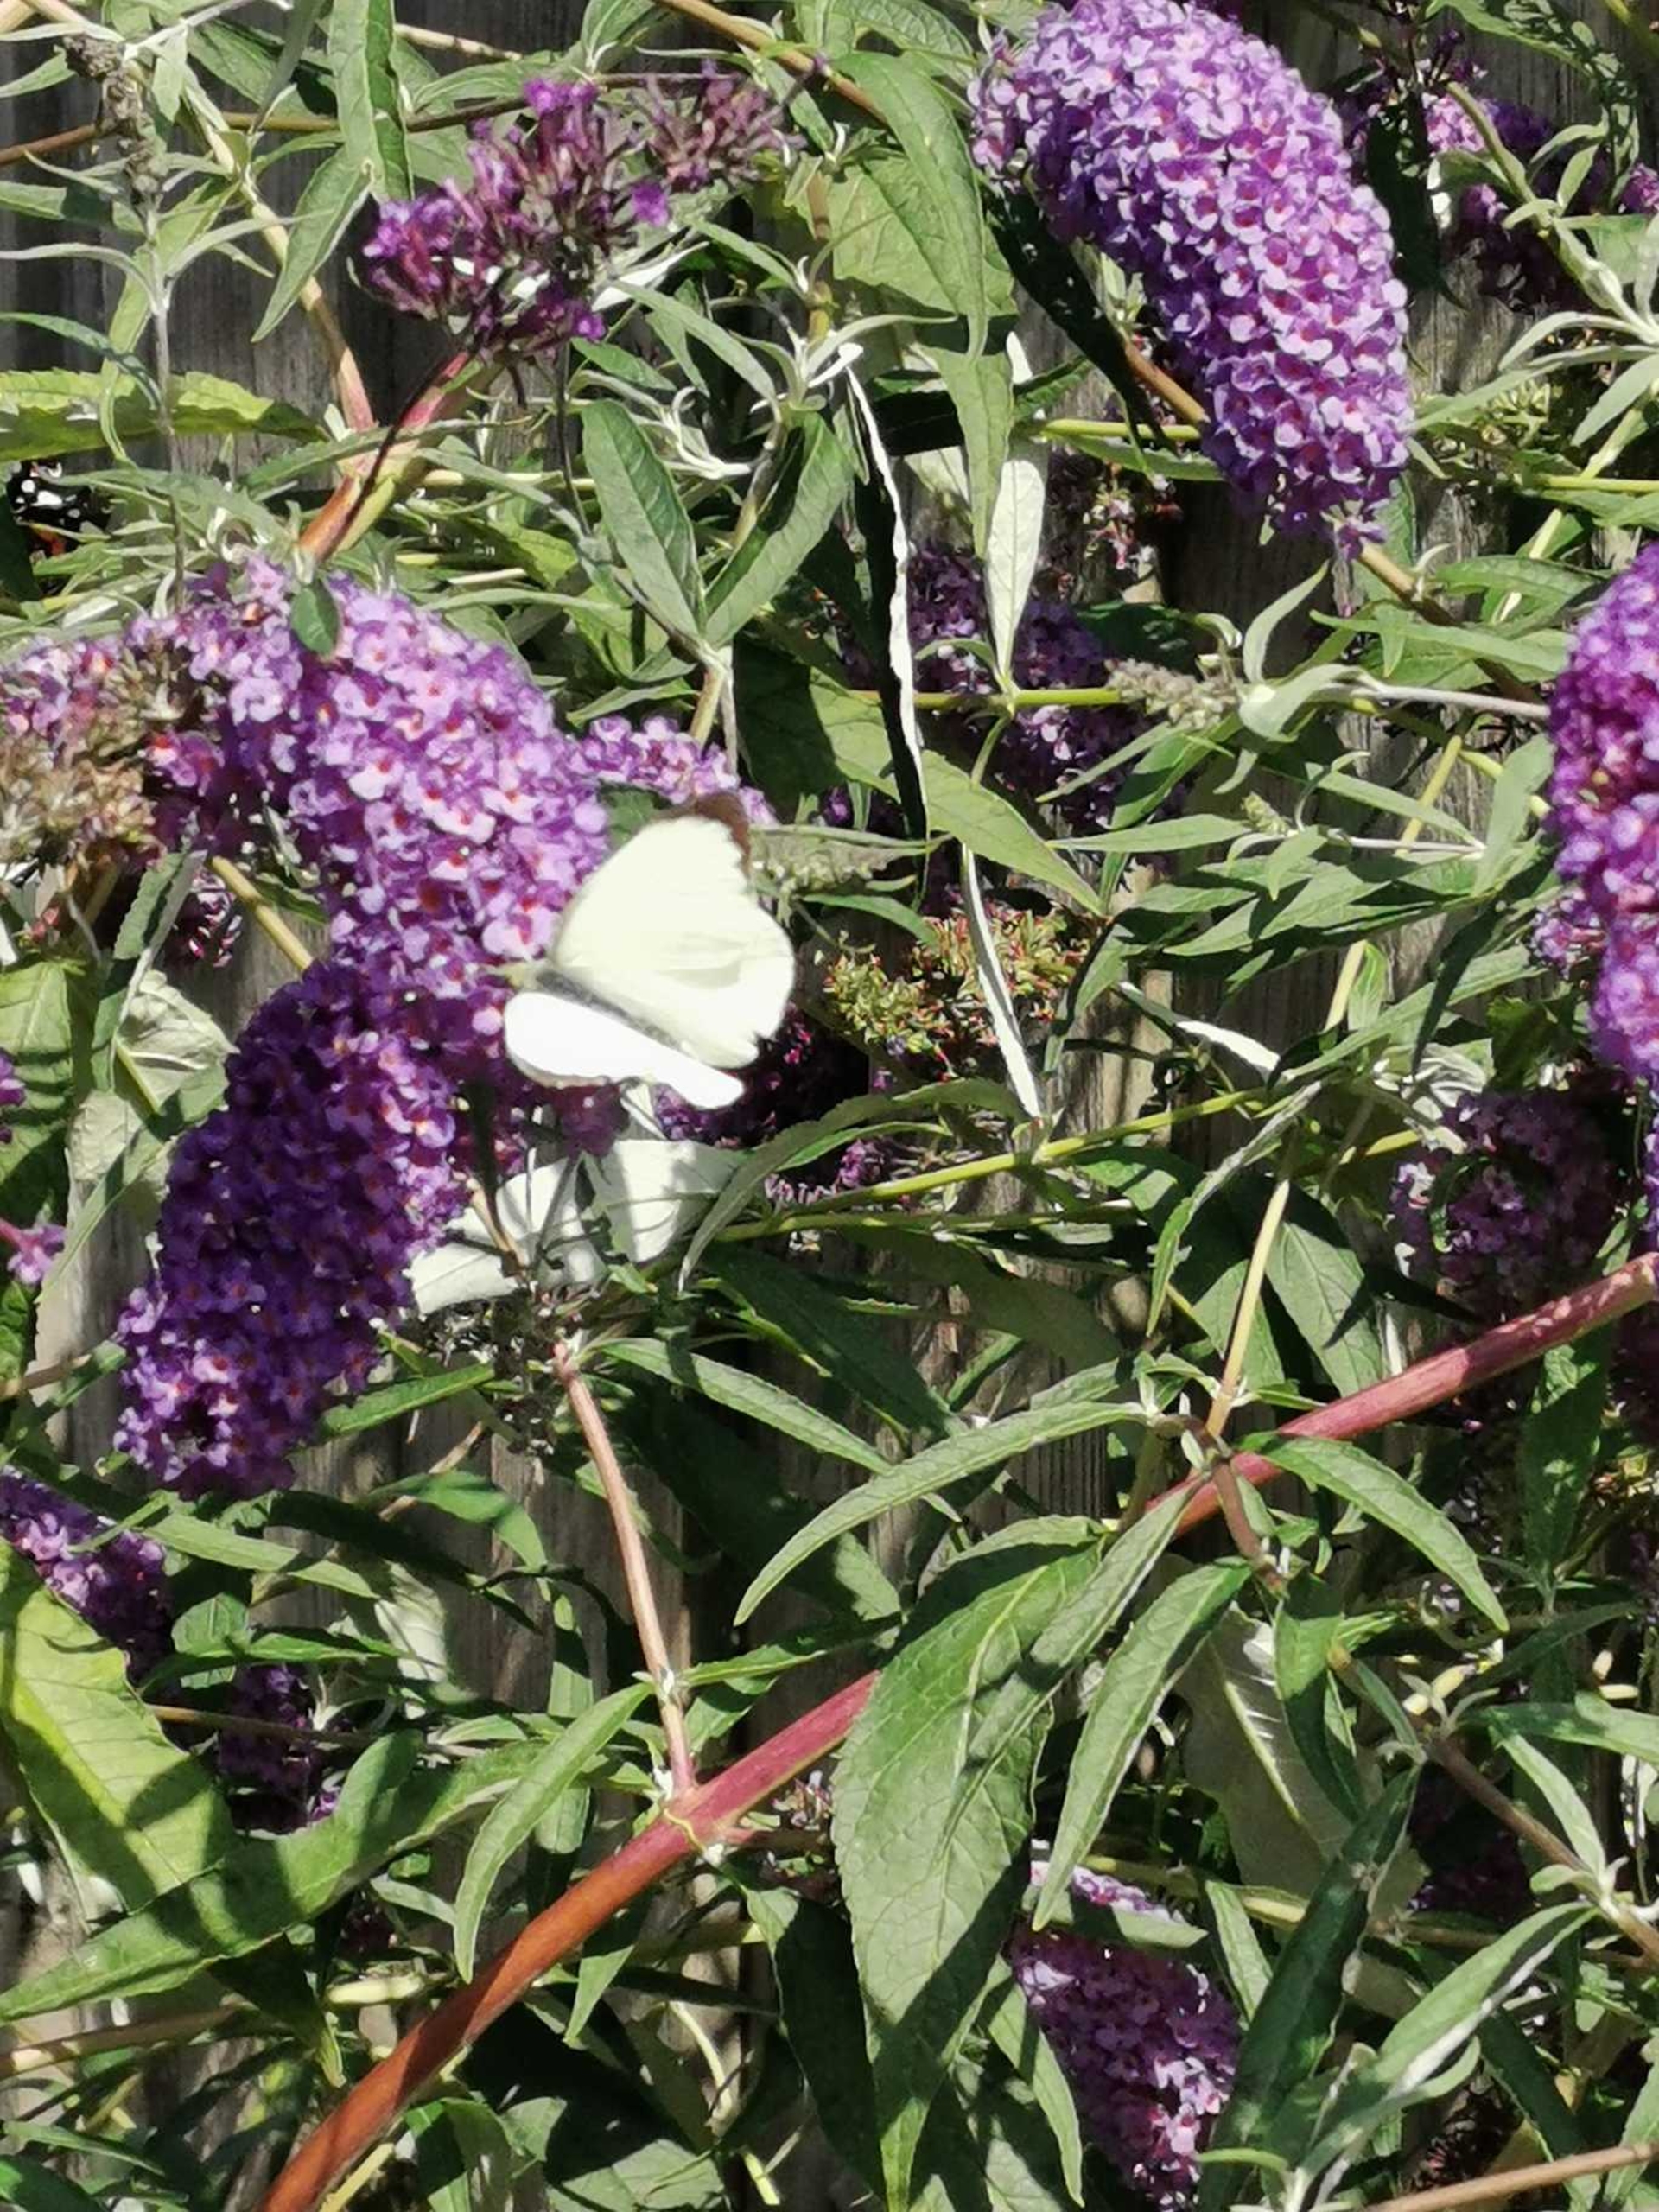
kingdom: Animalia
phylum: Arthropoda
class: Insecta
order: Lepidoptera
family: Pieridae
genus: Pieris
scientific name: Pieris brassicae
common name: Stor kålsommerfugl
